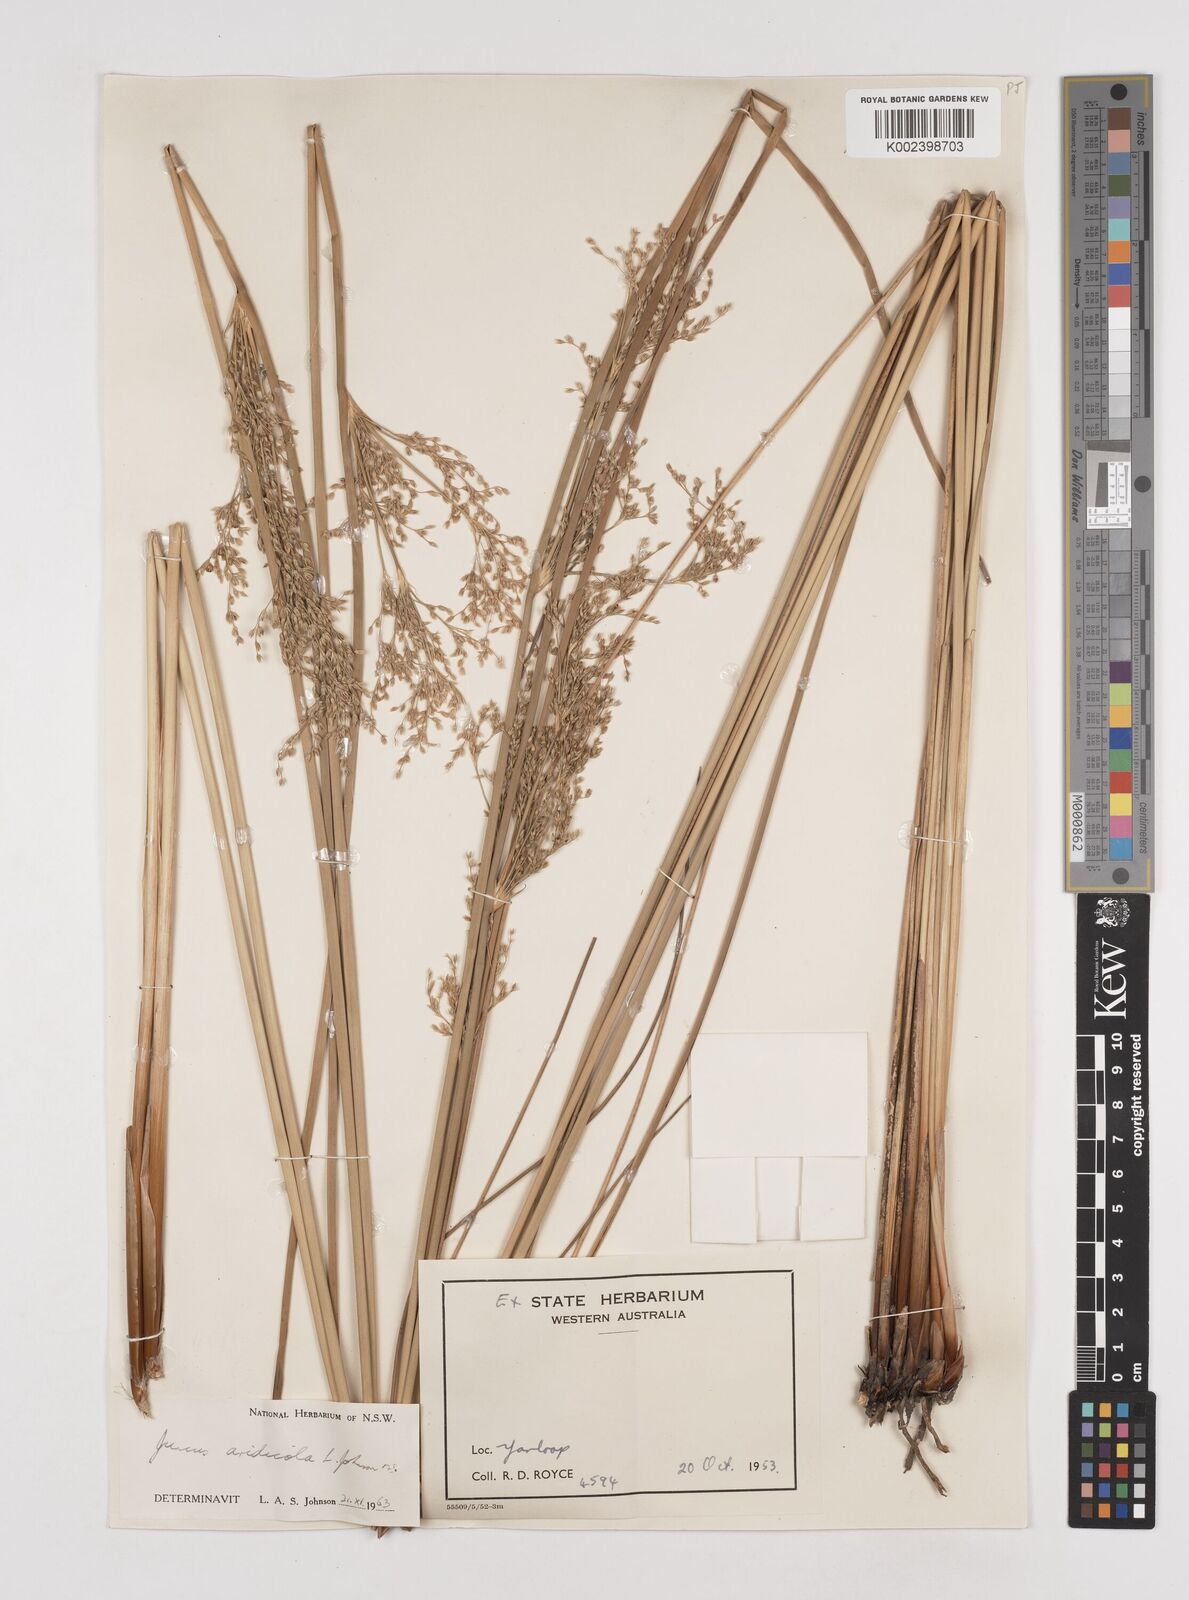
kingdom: Plantae
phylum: Tracheophyta
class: Liliopsida
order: Poales
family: Juncaceae
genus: Juncus
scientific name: Juncus aridicola
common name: Tussock rush
